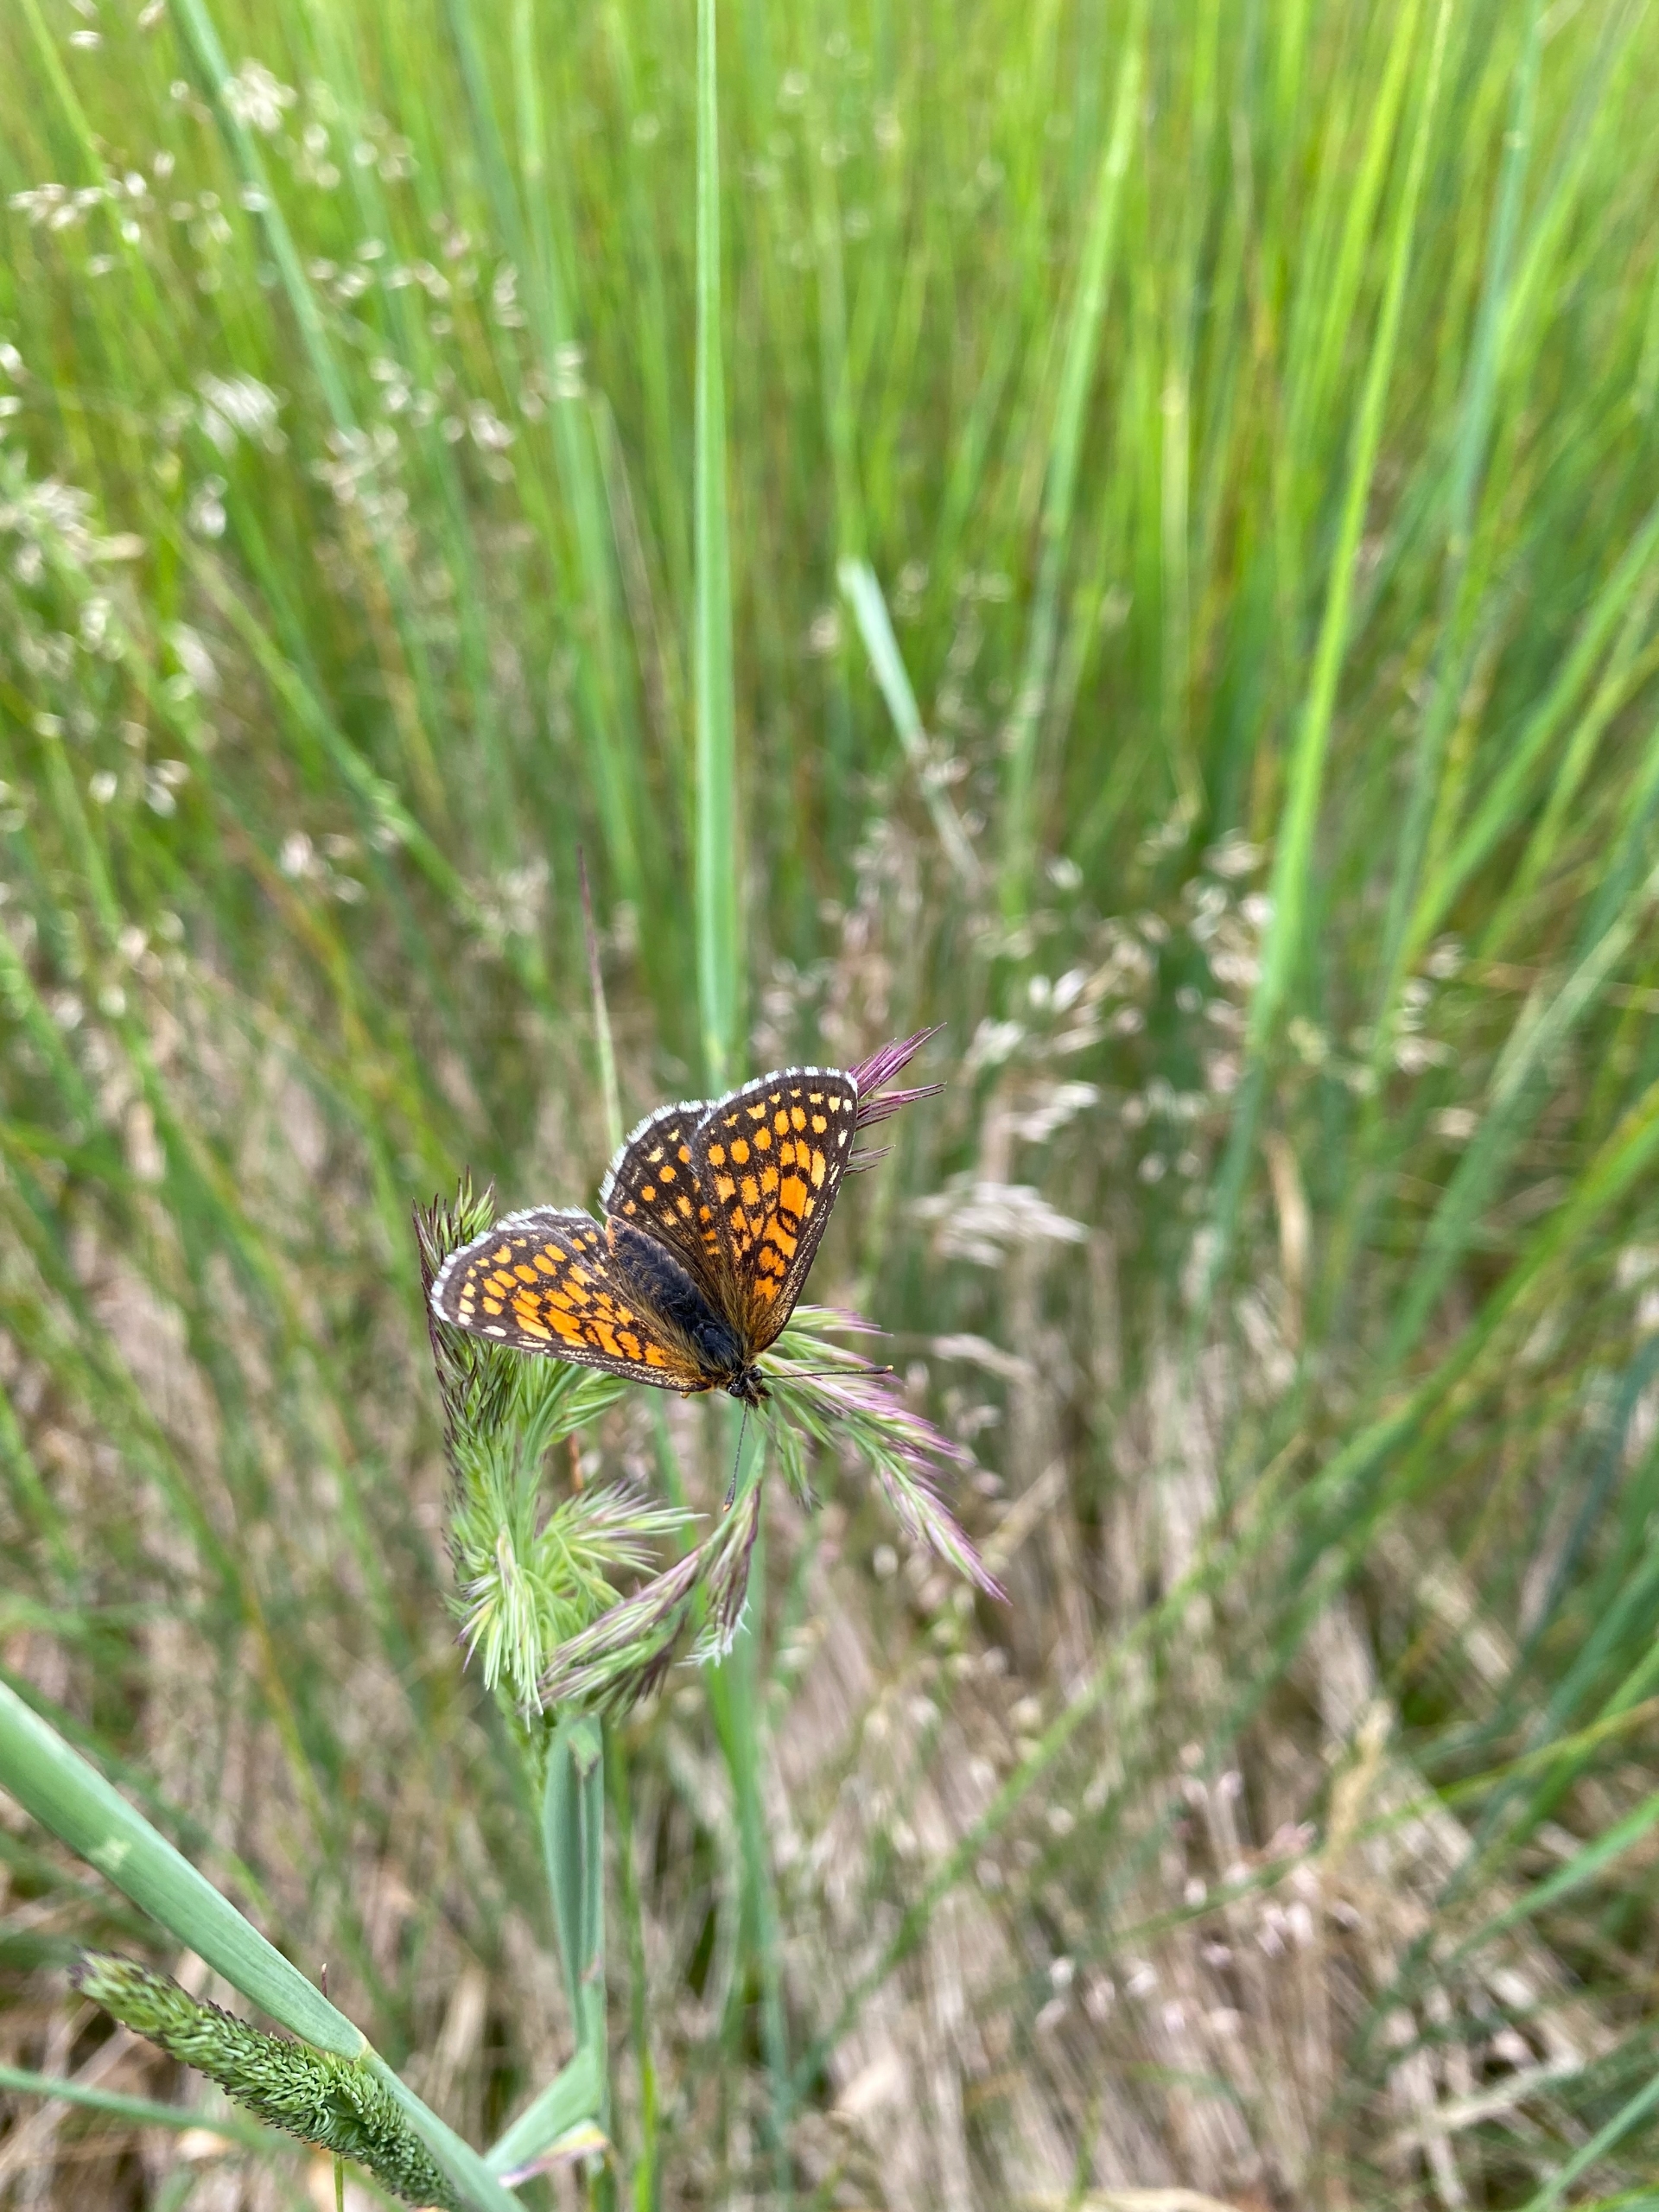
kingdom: Animalia
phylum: Arthropoda
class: Insecta
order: Lepidoptera
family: Nymphalidae
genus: Mellicta
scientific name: Mellicta athalia
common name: Brun pletvinge
